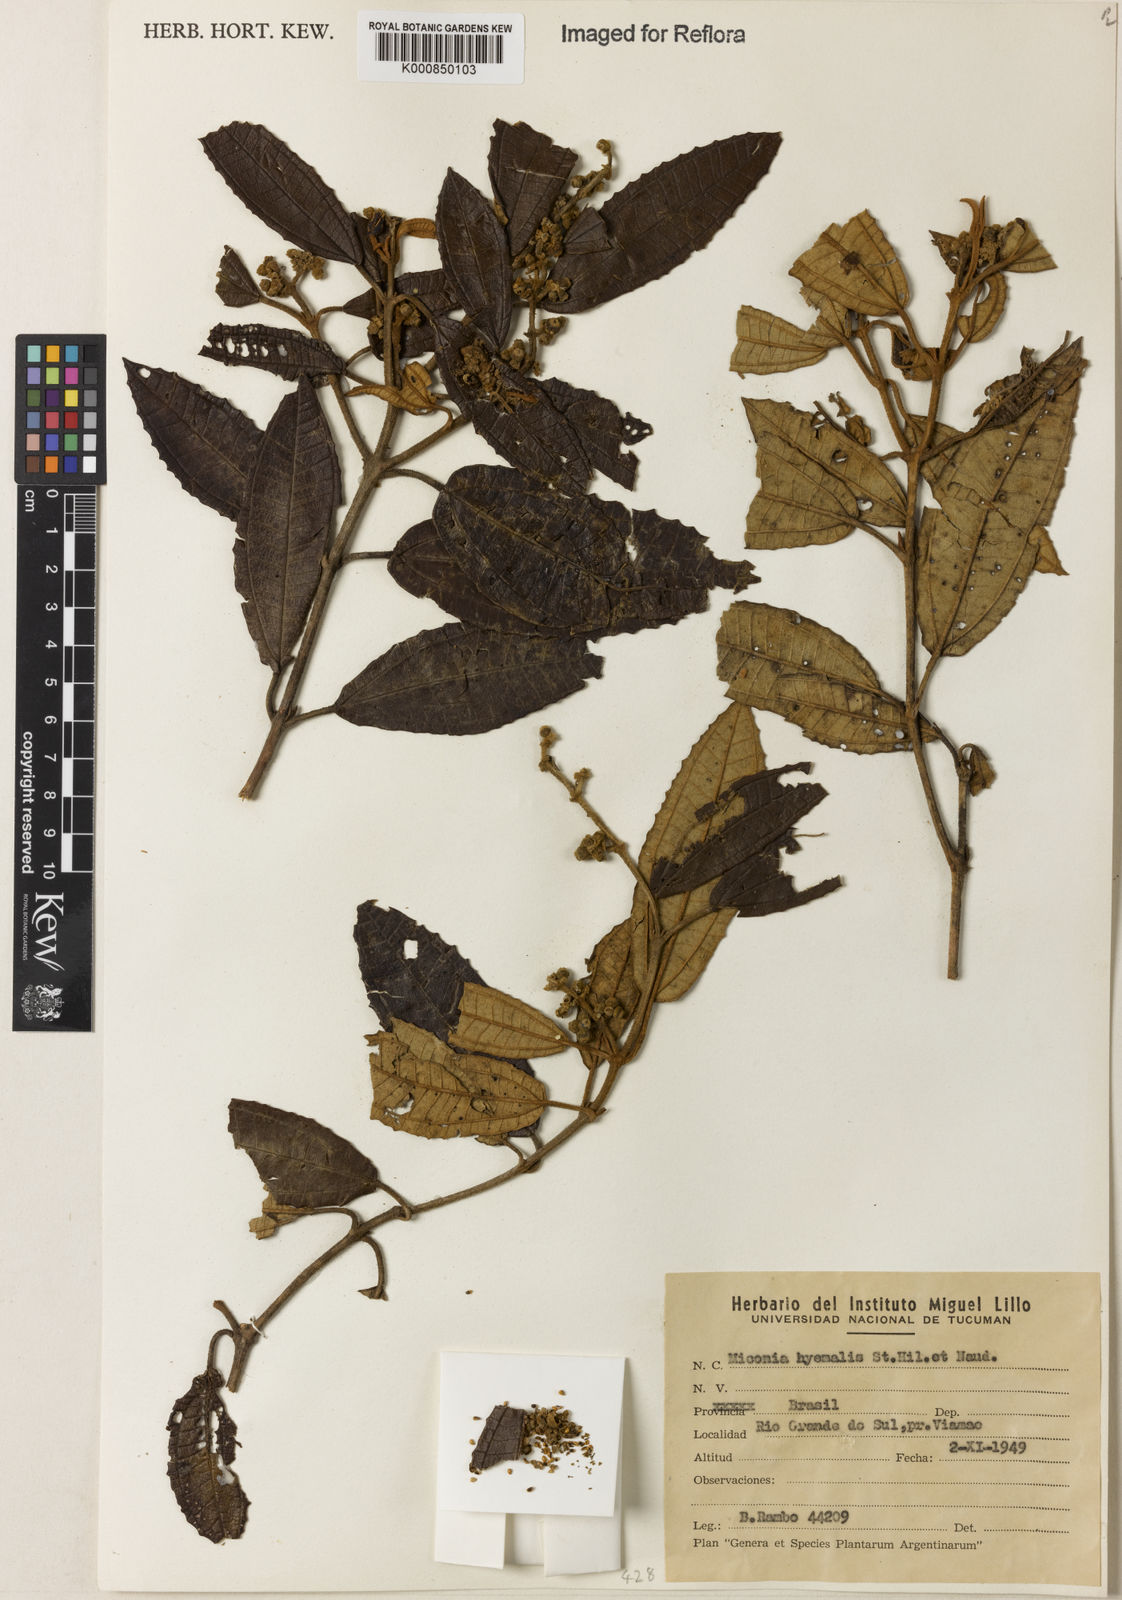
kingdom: Plantae
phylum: Tracheophyta
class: Magnoliopsida
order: Myrtales
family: Melastomataceae
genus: Miconia
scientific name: Miconia hyemalis
